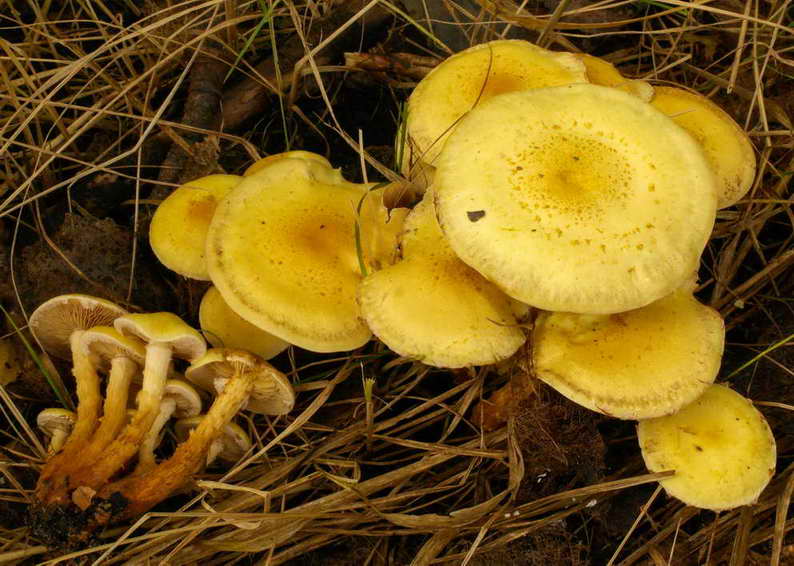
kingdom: Fungi
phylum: Basidiomycota
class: Agaricomycetes
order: Agaricales
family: Hymenogastraceae
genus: Flammula
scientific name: Flammula alnicola
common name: elle-skælhat
